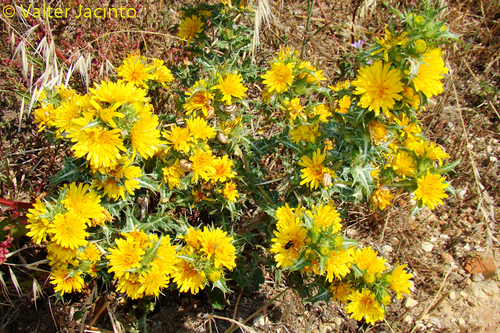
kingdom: Plantae
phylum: Tracheophyta
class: Magnoliopsida
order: Asterales
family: Asteraceae
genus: Scolymus
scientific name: Scolymus hispanicus
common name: Golden thistle
